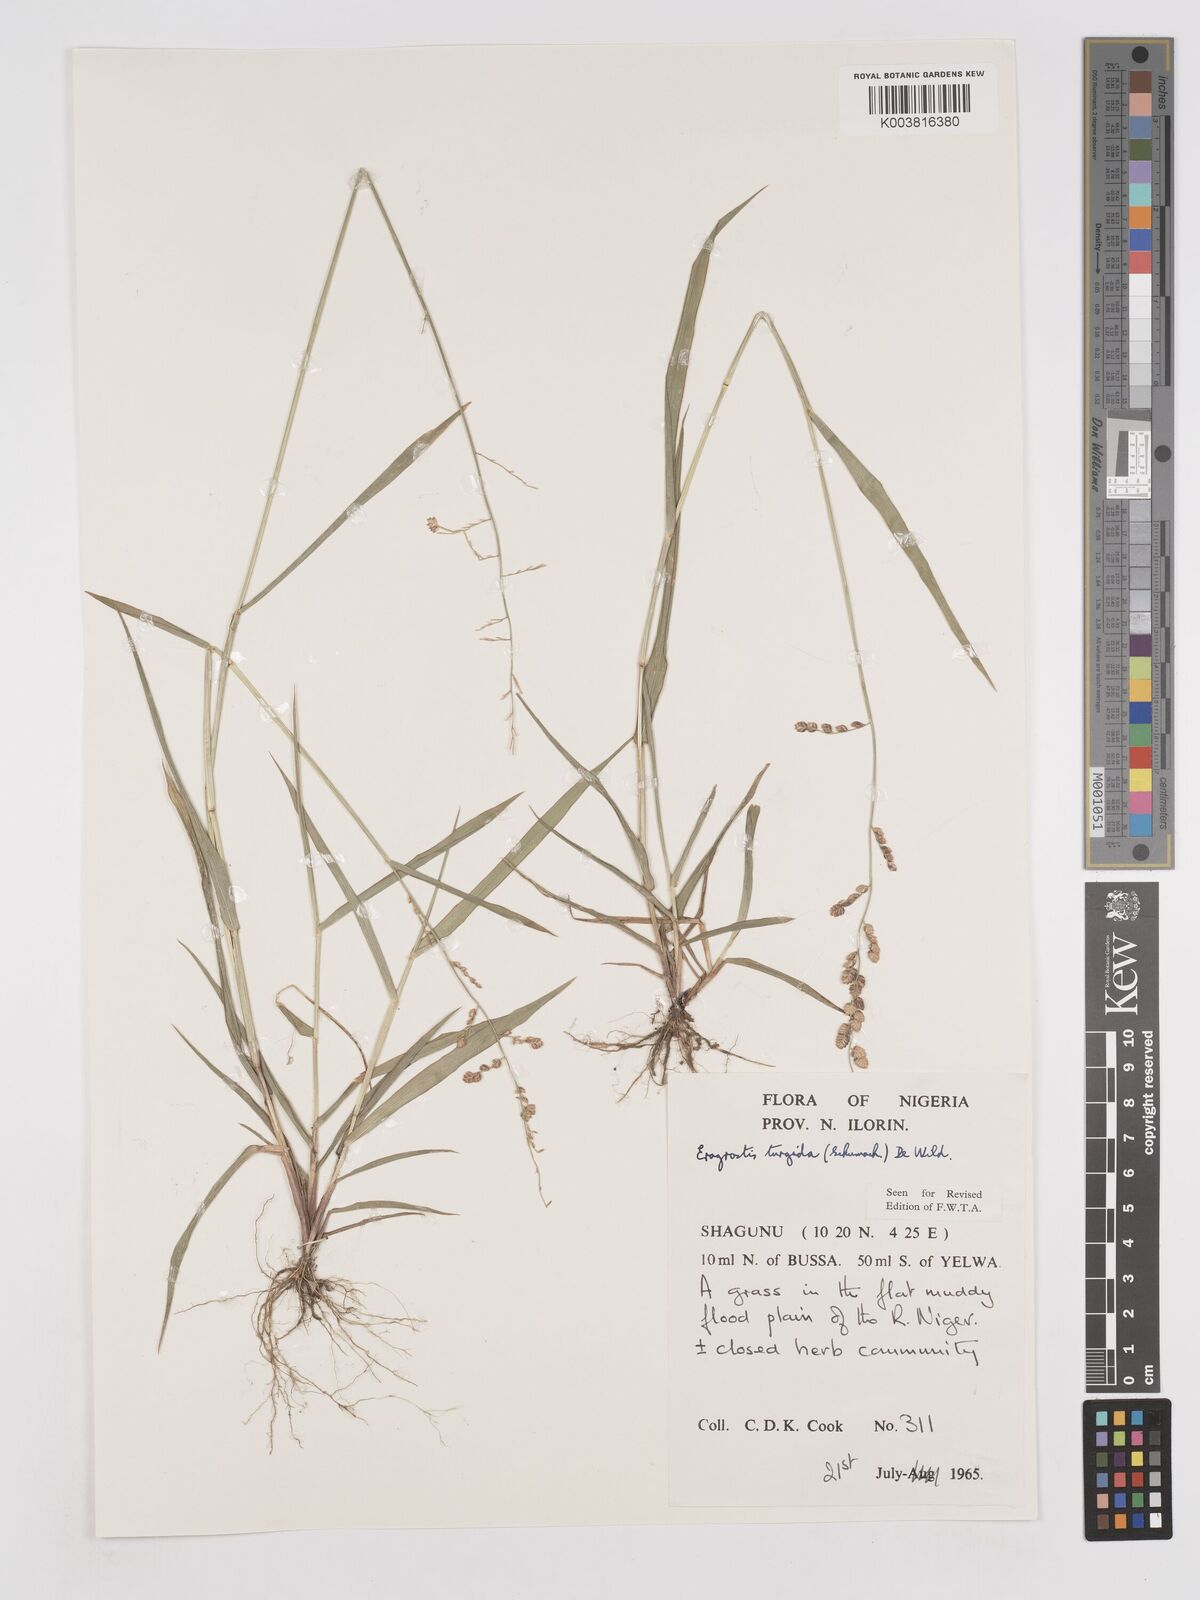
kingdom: Plantae
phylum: Tracheophyta
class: Liliopsida
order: Poales
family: Poaceae
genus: Eragrostis
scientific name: Eragrostis turgida
